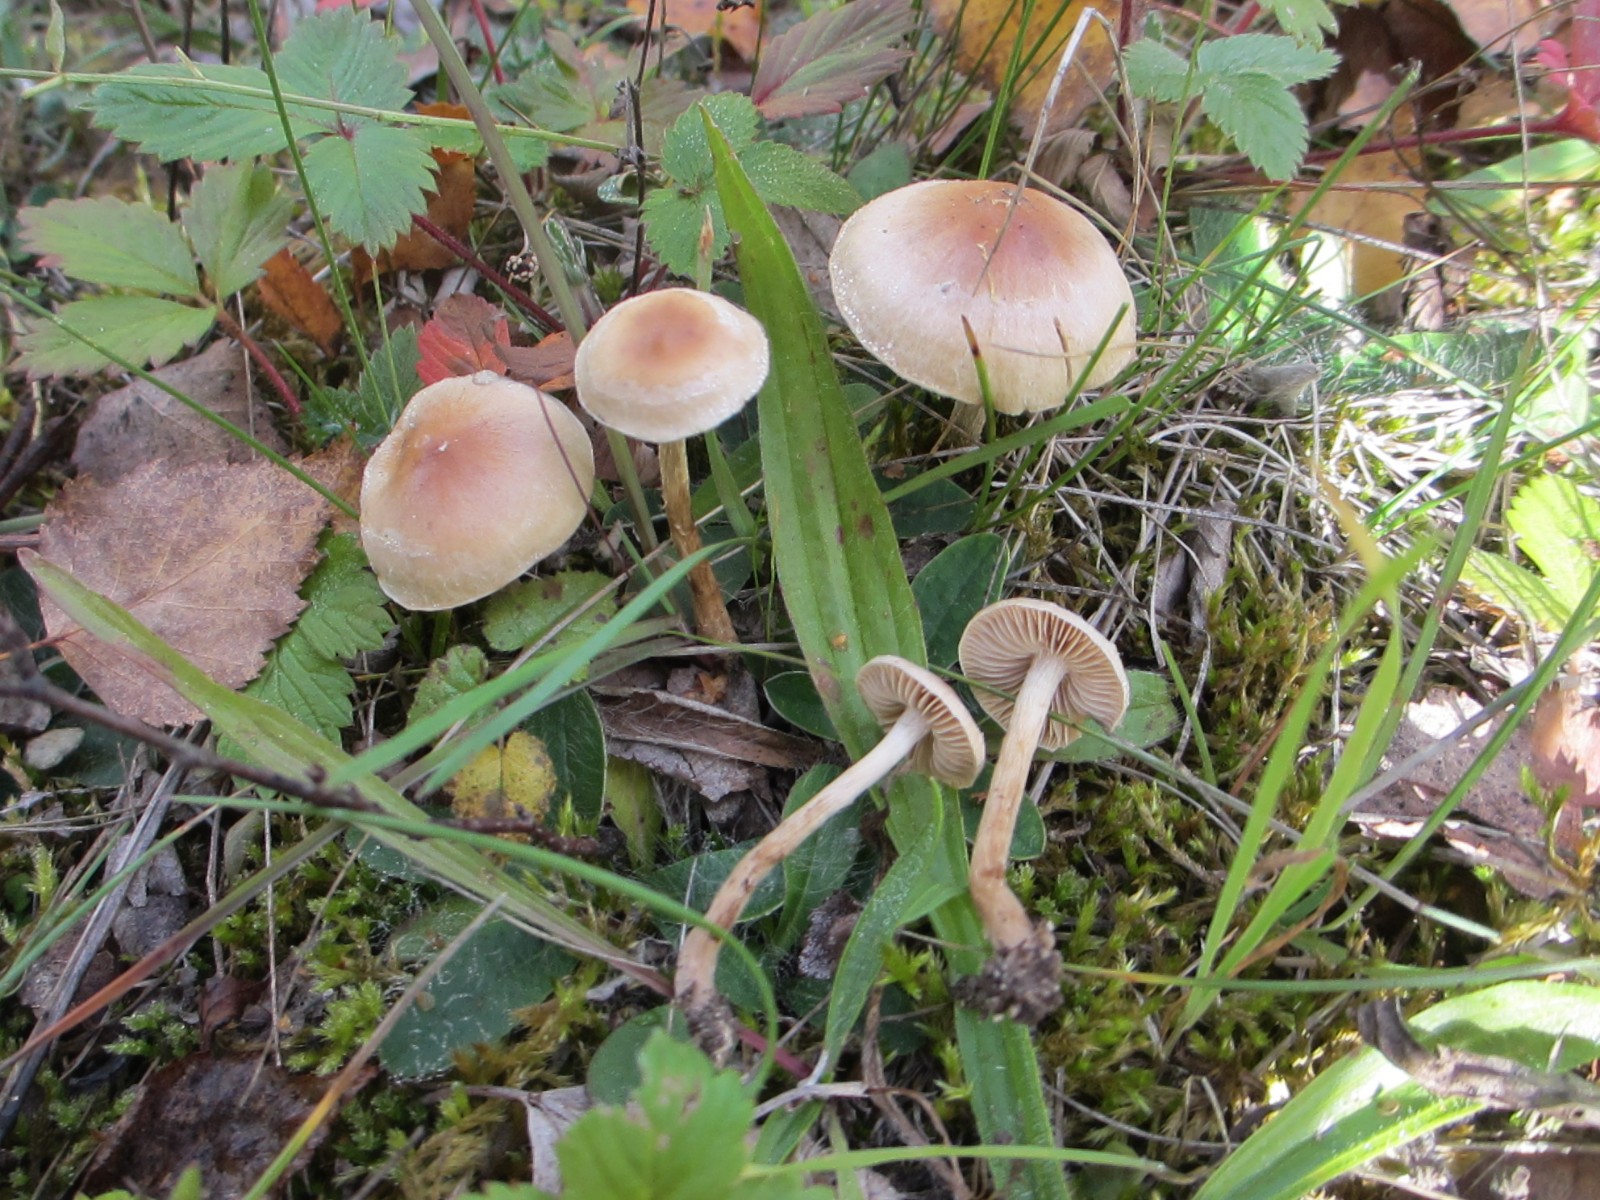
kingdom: Fungi
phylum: Basidiomycota
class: Agaricomycetes
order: Agaricales
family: Hymenogastraceae
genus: Hebeloma
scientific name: Hebeloma mesophaeum
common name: lerbrun tåreblad
